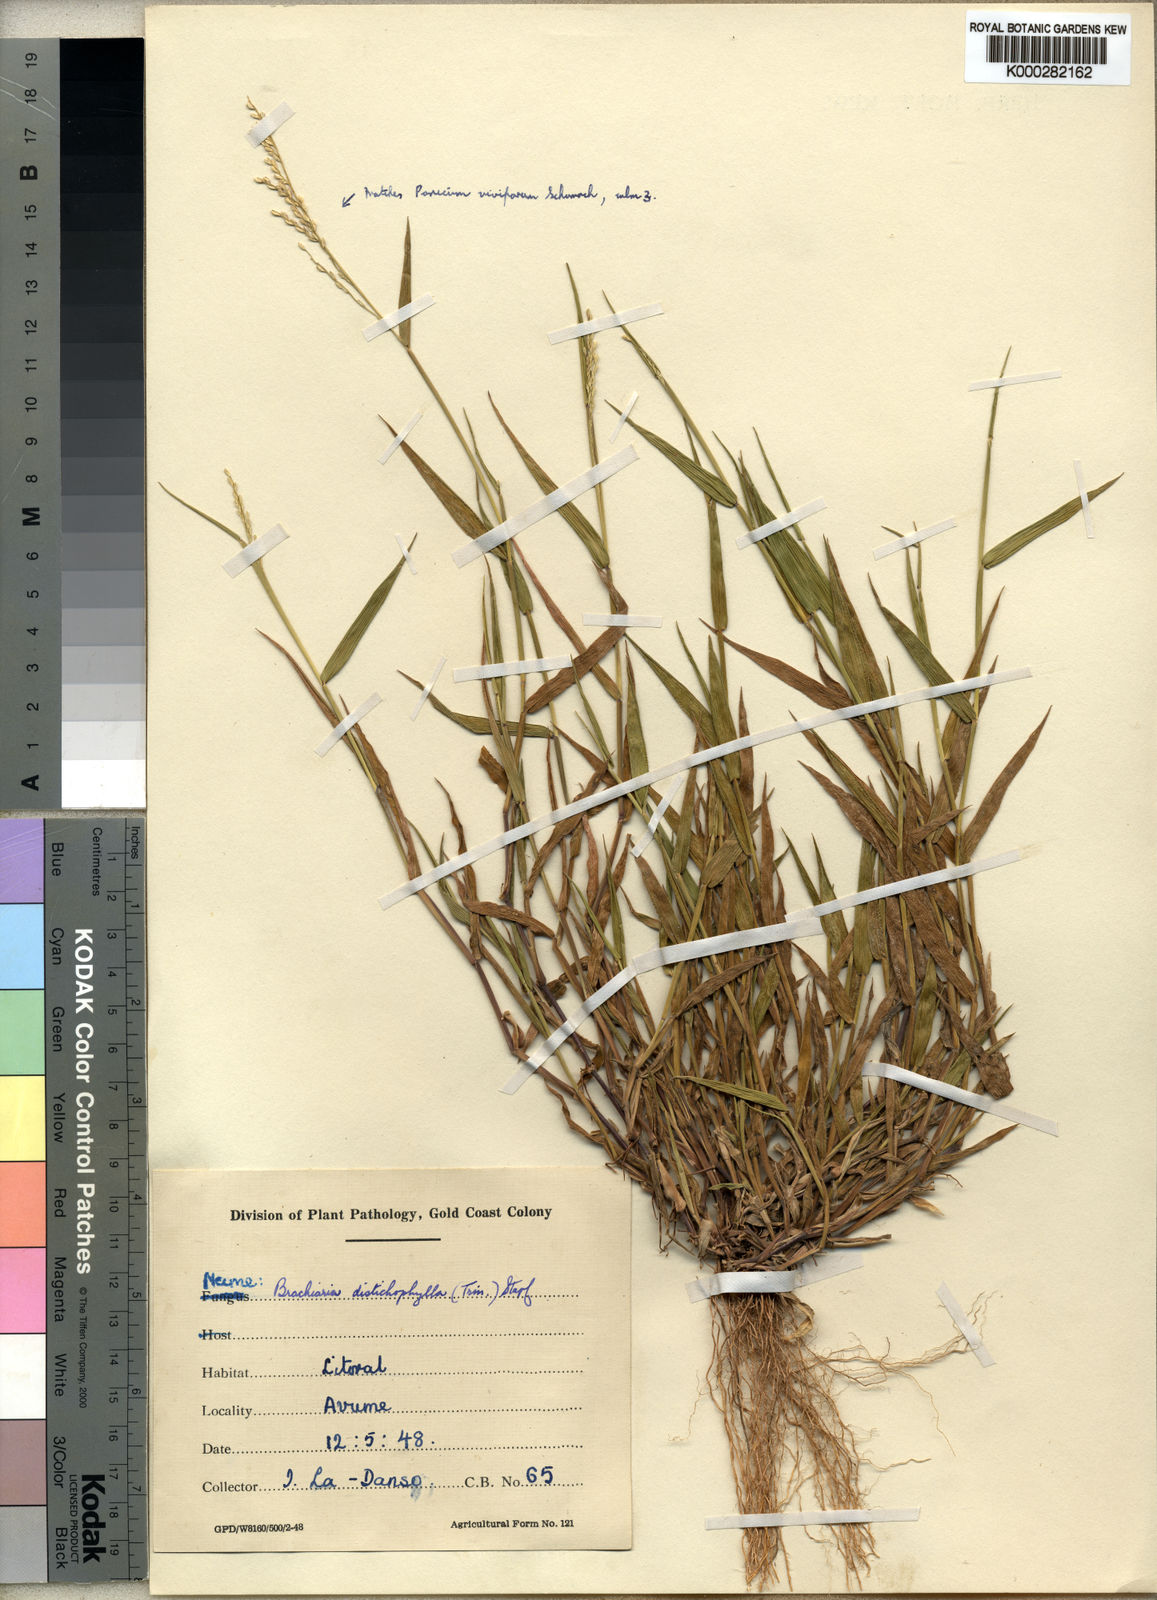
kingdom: Plantae
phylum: Tracheophyta
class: Liliopsida
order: Poales
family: Poaceae
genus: Urochloa
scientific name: Urochloa villosa
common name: Hairy signalgrass
